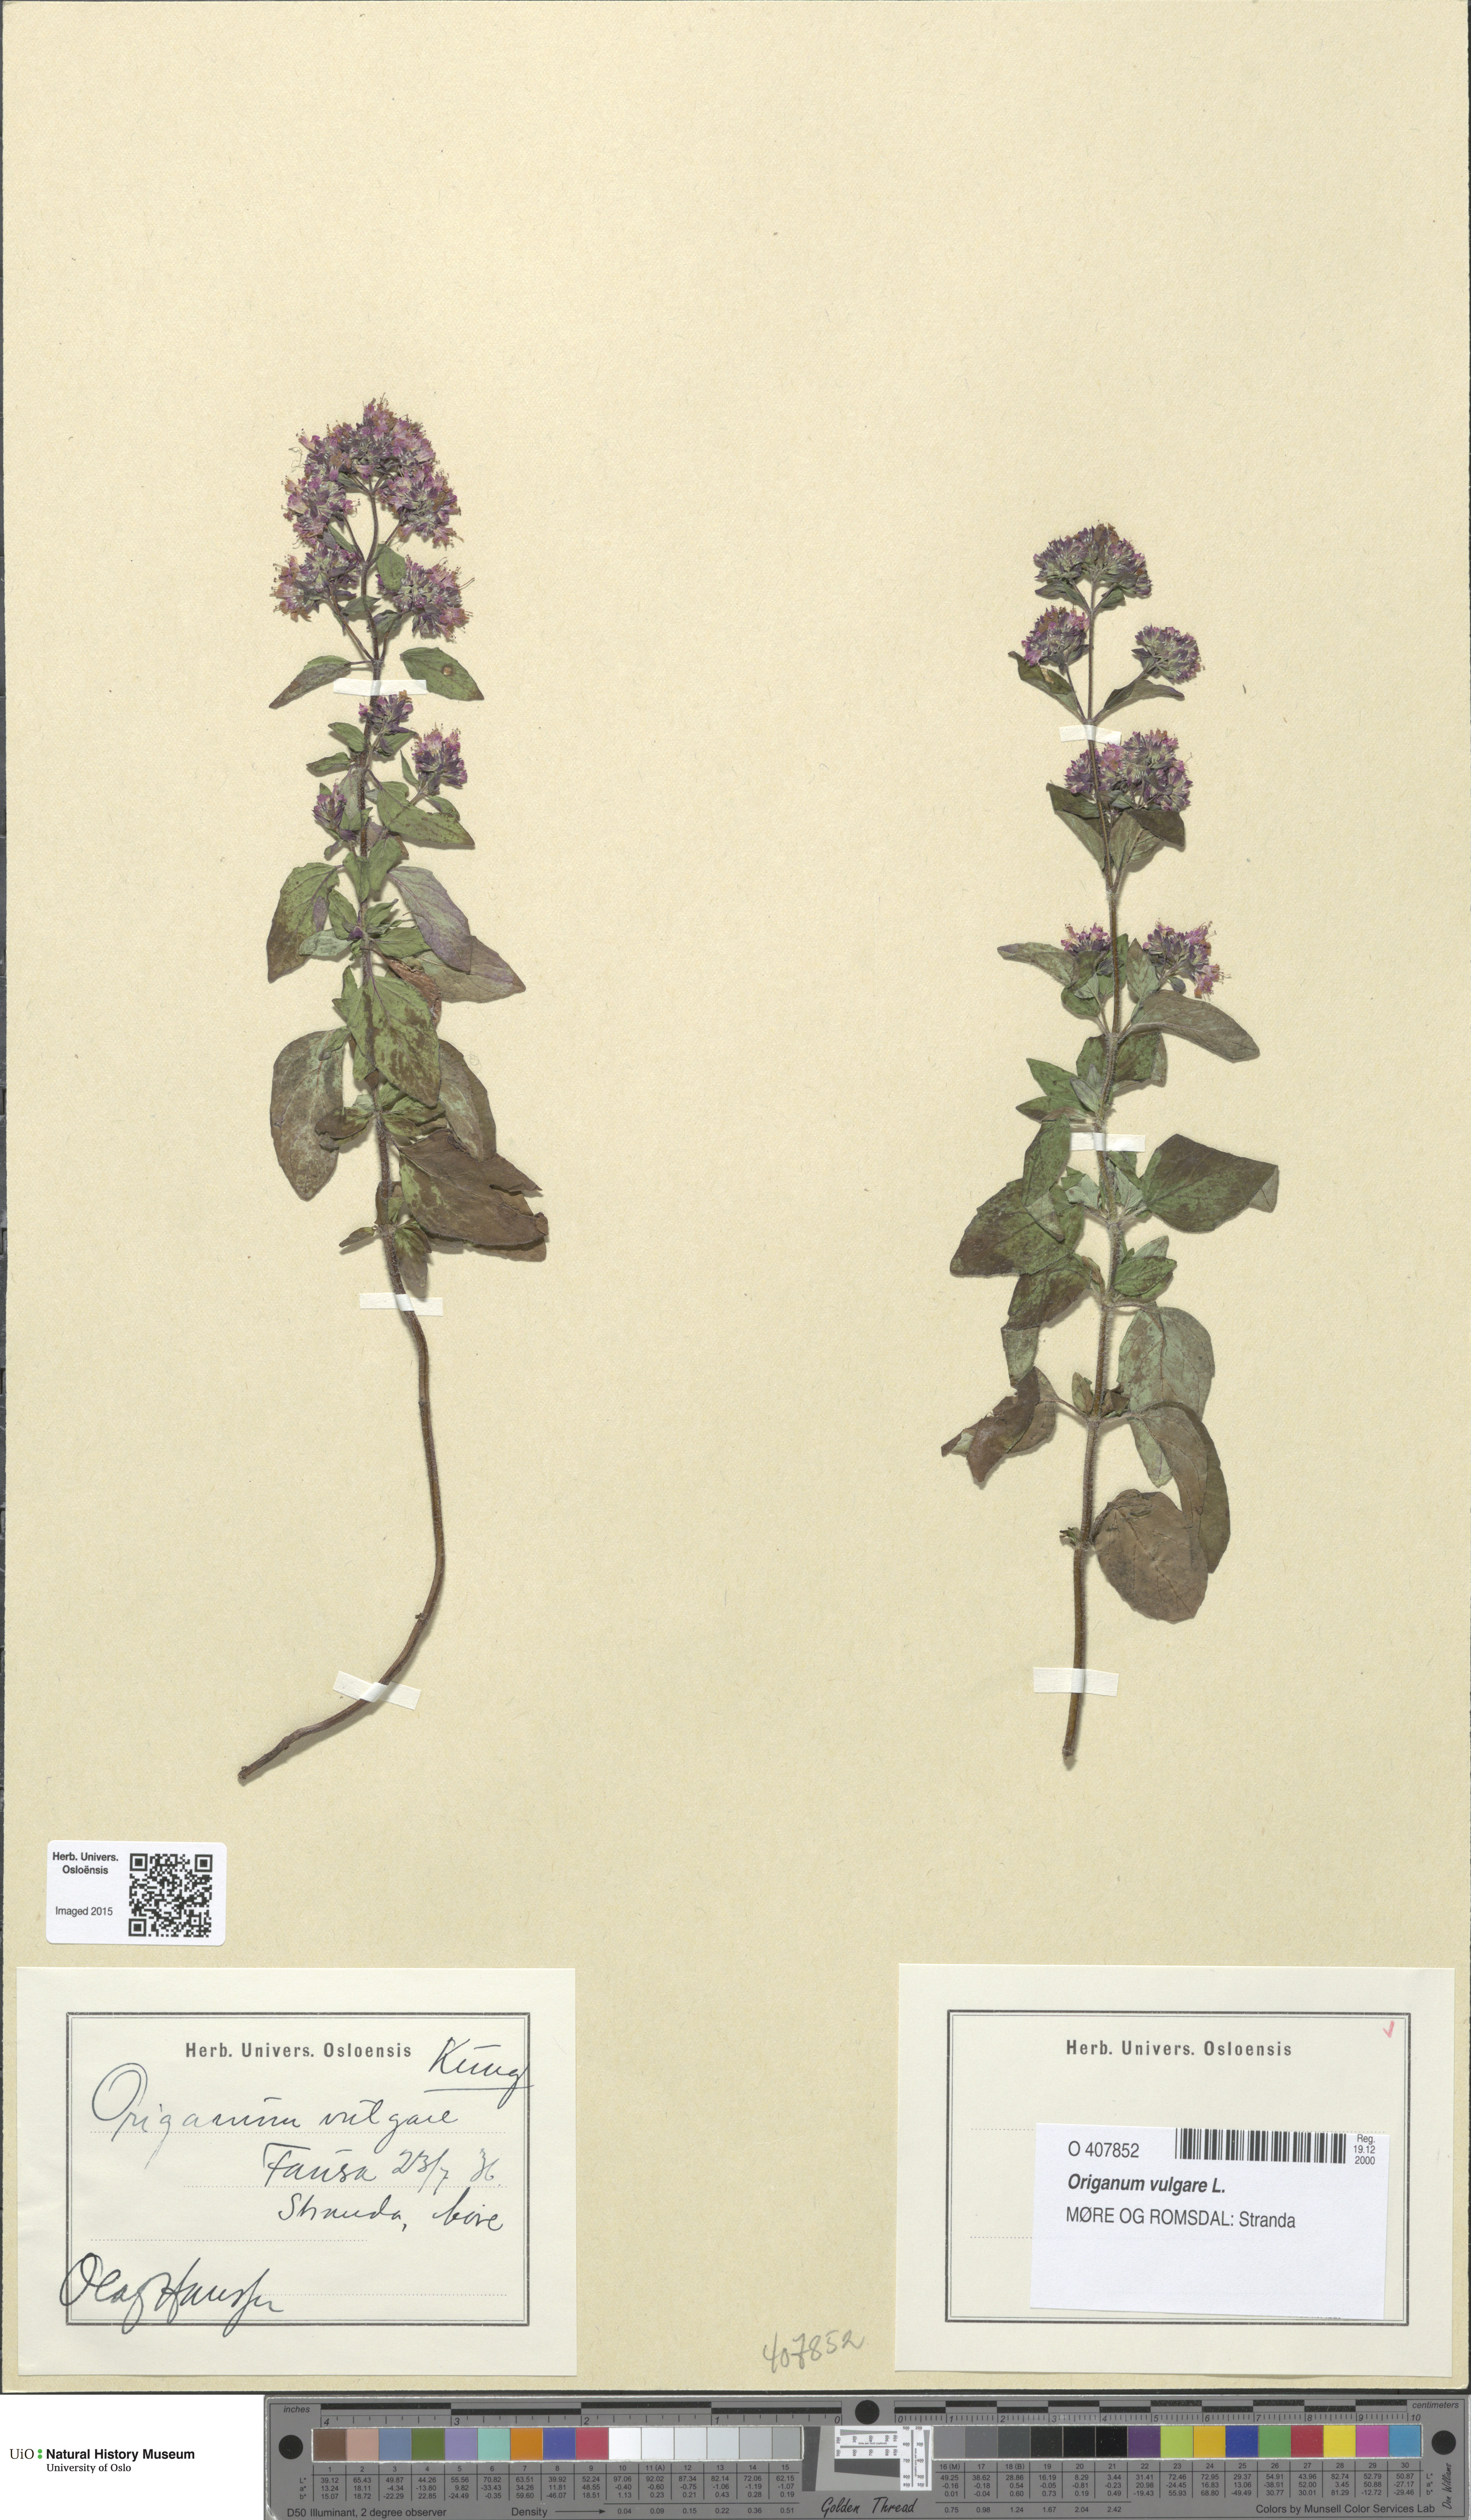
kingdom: Plantae
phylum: Tracheophyta
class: Magnoliopsida
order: Lamiales
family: Lamiaceae
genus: Origanum
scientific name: Origanum vulgare
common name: Wild marjoram
